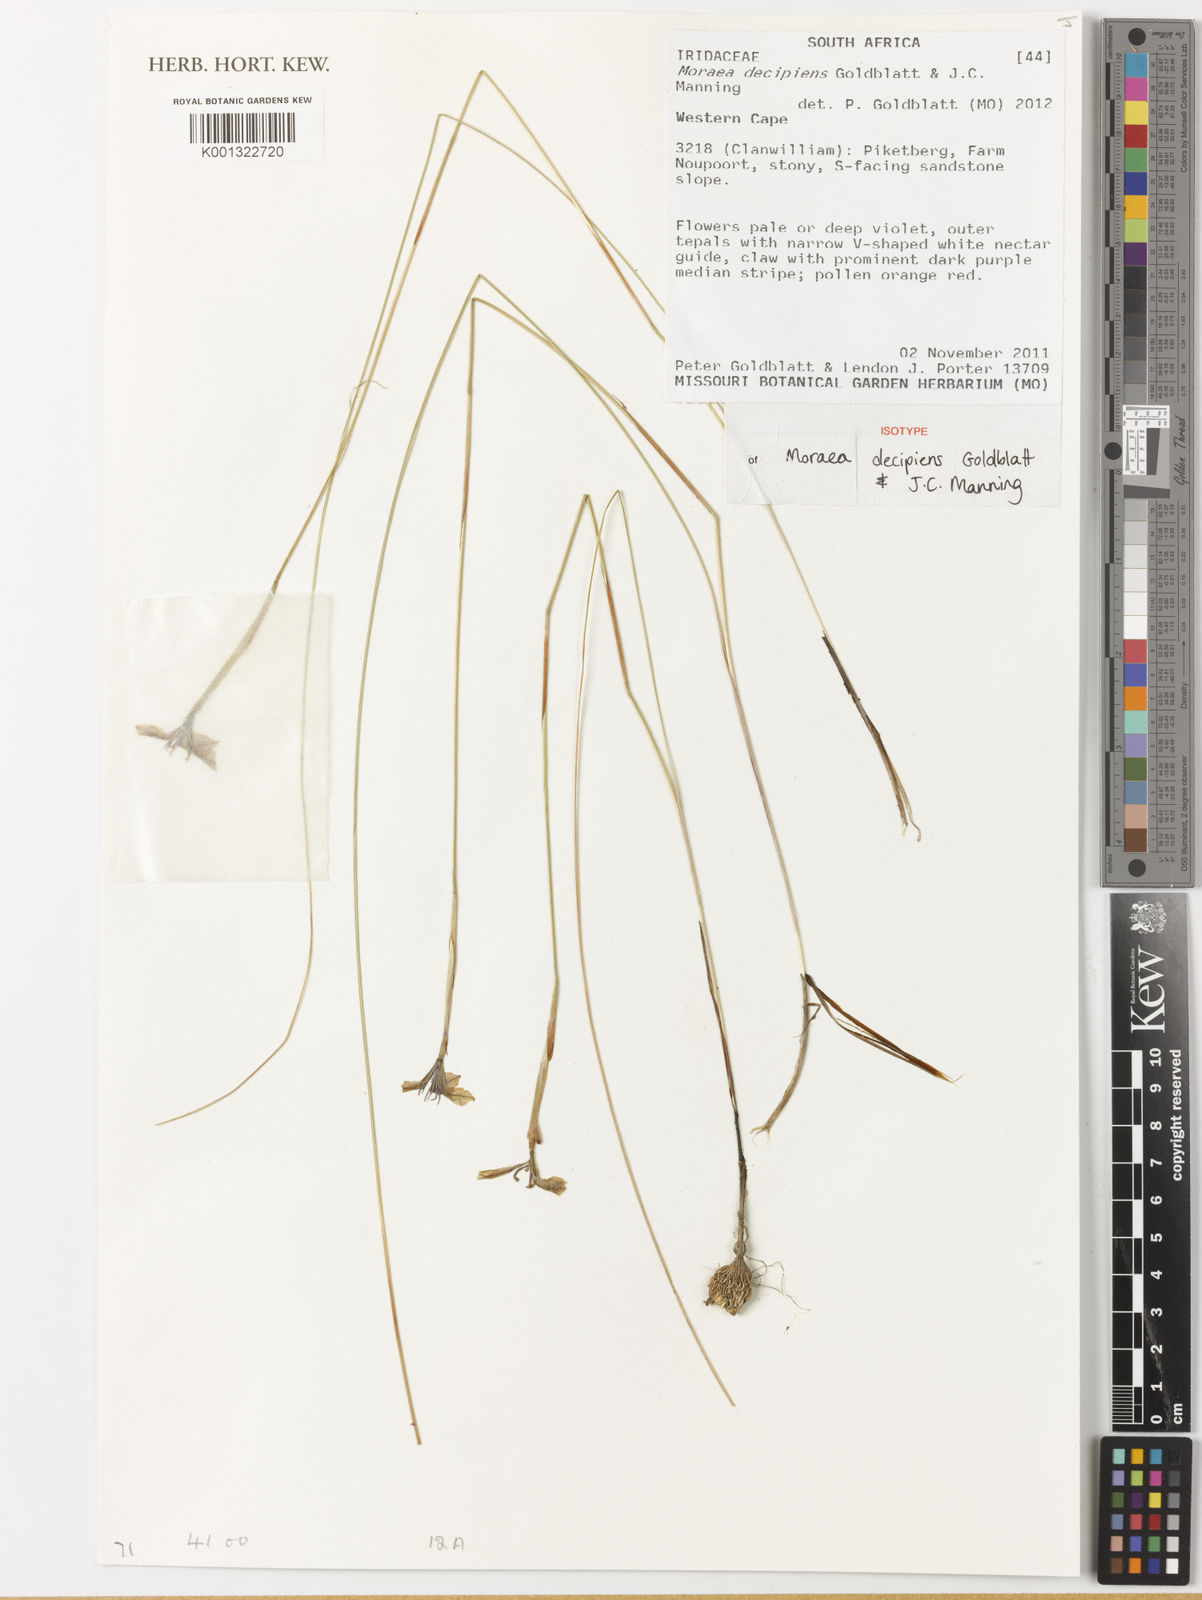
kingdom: Plantae
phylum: Tracheophyta
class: Liliopsida
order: Asparagales
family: Iridaceae
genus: Moraea
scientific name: Moraea decipiens
